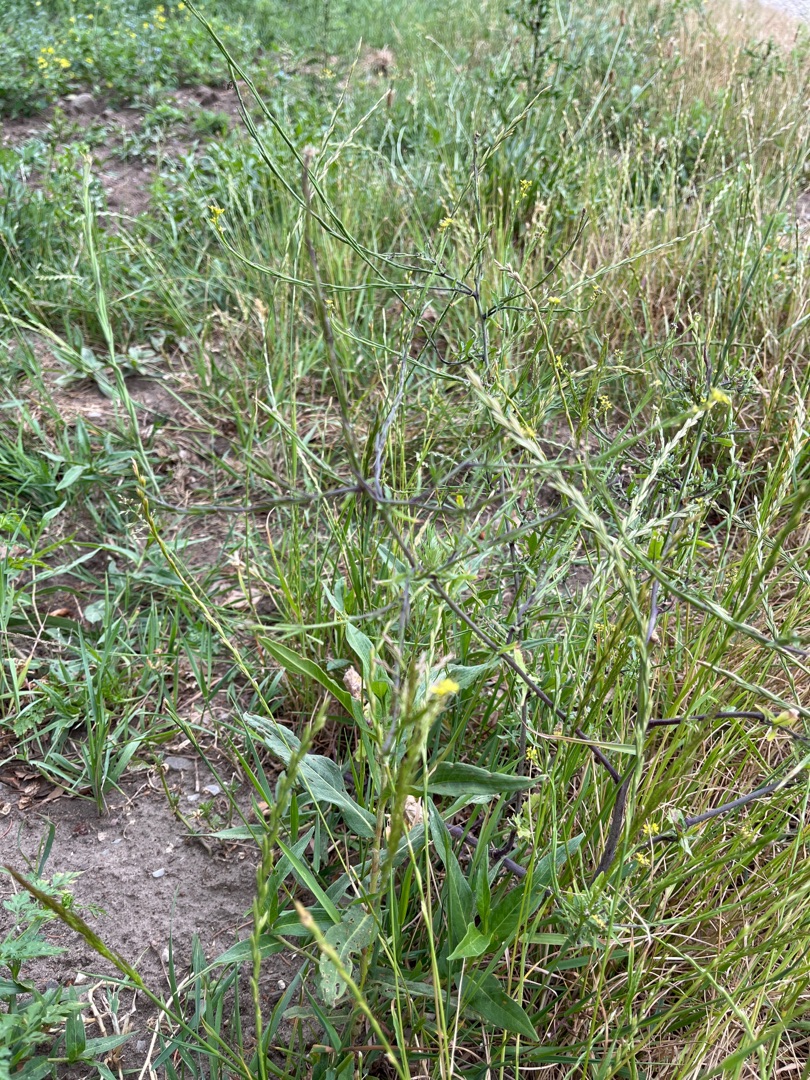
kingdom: Plantae
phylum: Tracheophyta
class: Magnoliopsida
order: Brassicales
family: Brassicaceae
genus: Sisymbrium
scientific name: Sisymbrium officinale
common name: Rank vejsennep
